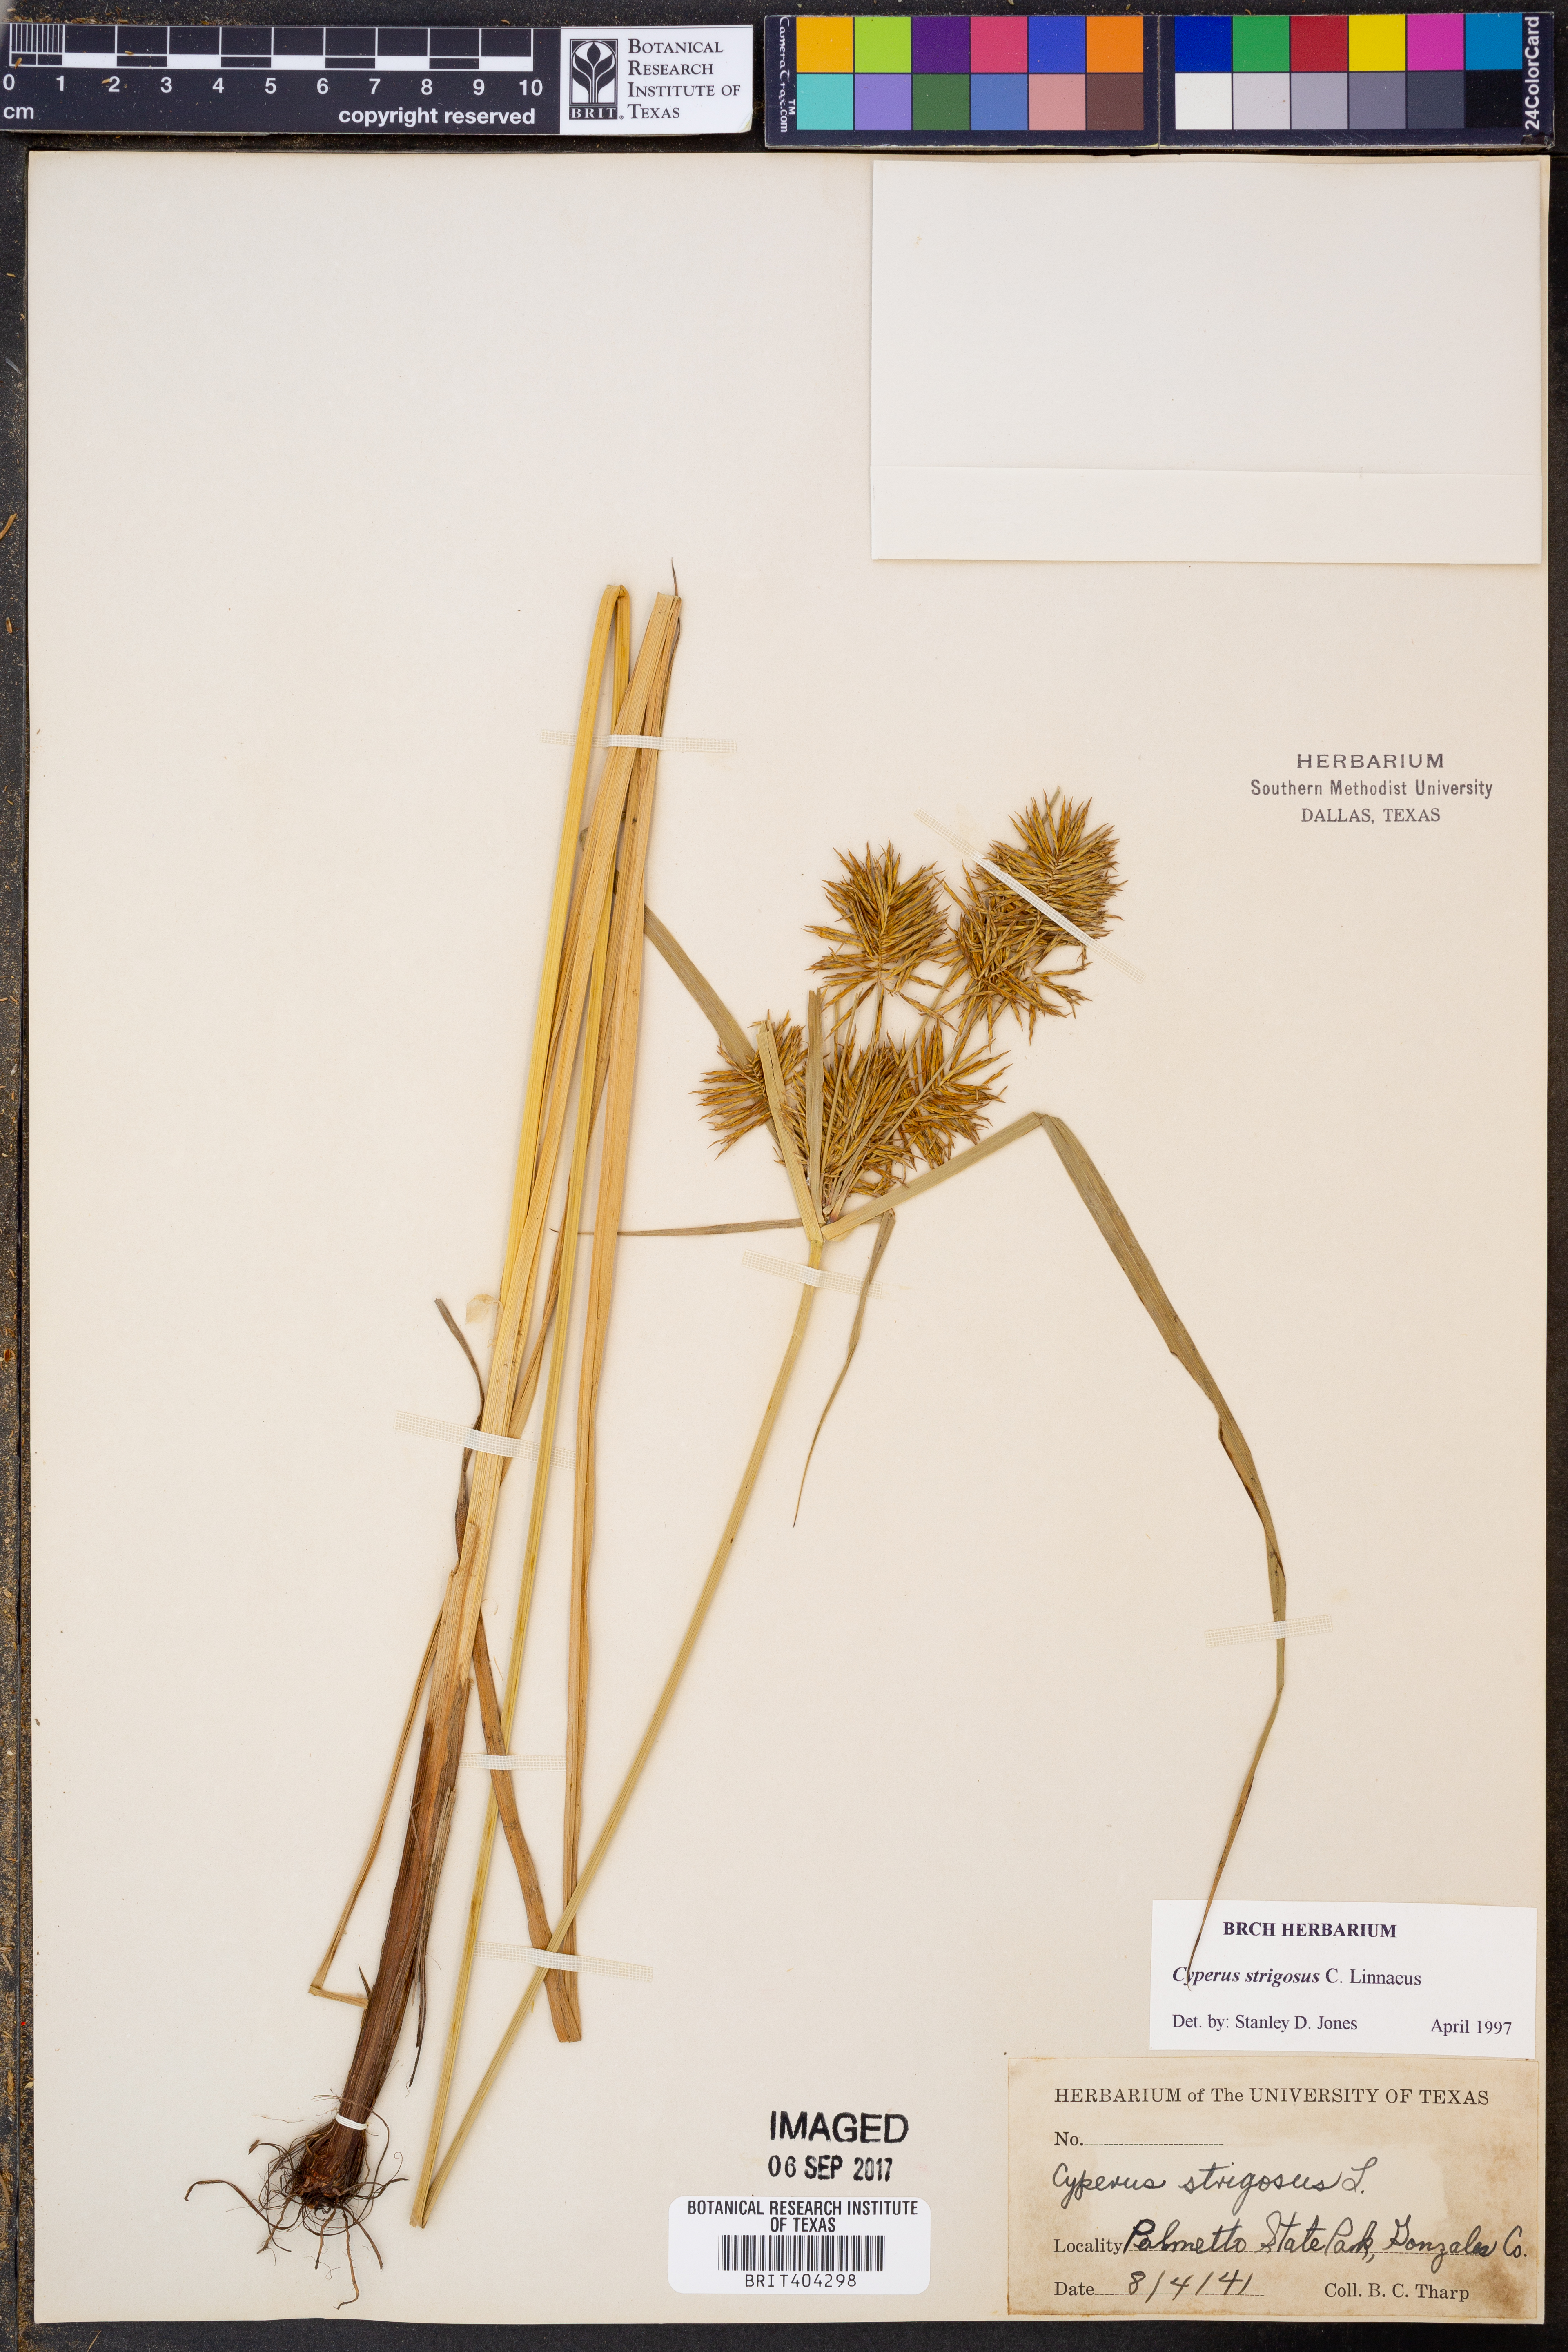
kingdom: Plantae
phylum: Tracheophyta
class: Liliopsida
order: Poales
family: Cyperaceae
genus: Cyperus
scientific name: Cyperus strigosus
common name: False nutsedge
